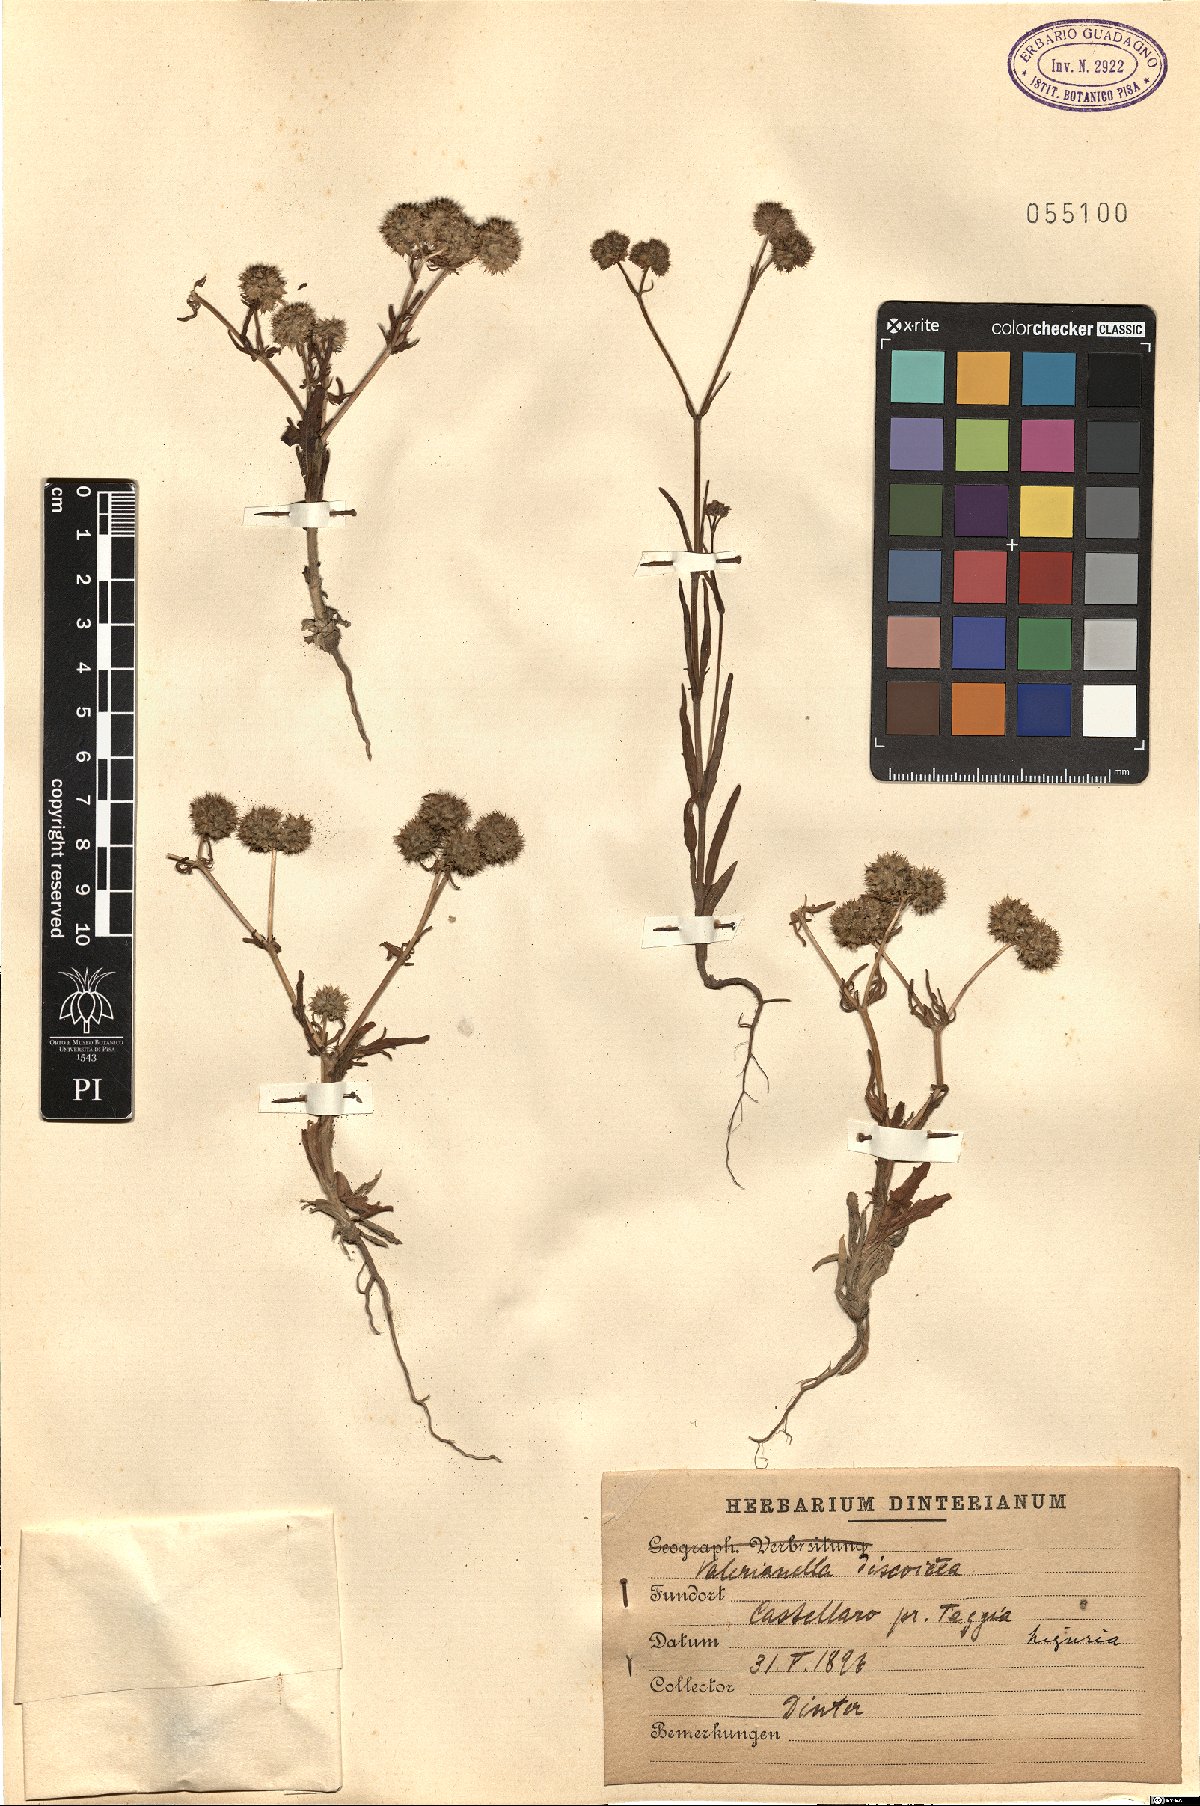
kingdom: Plantae
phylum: Tracheophyta
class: Magnoliopsida
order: Dipsacales
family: Caprifoliaceae
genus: Valerianella
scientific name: Valerianella discoidea
